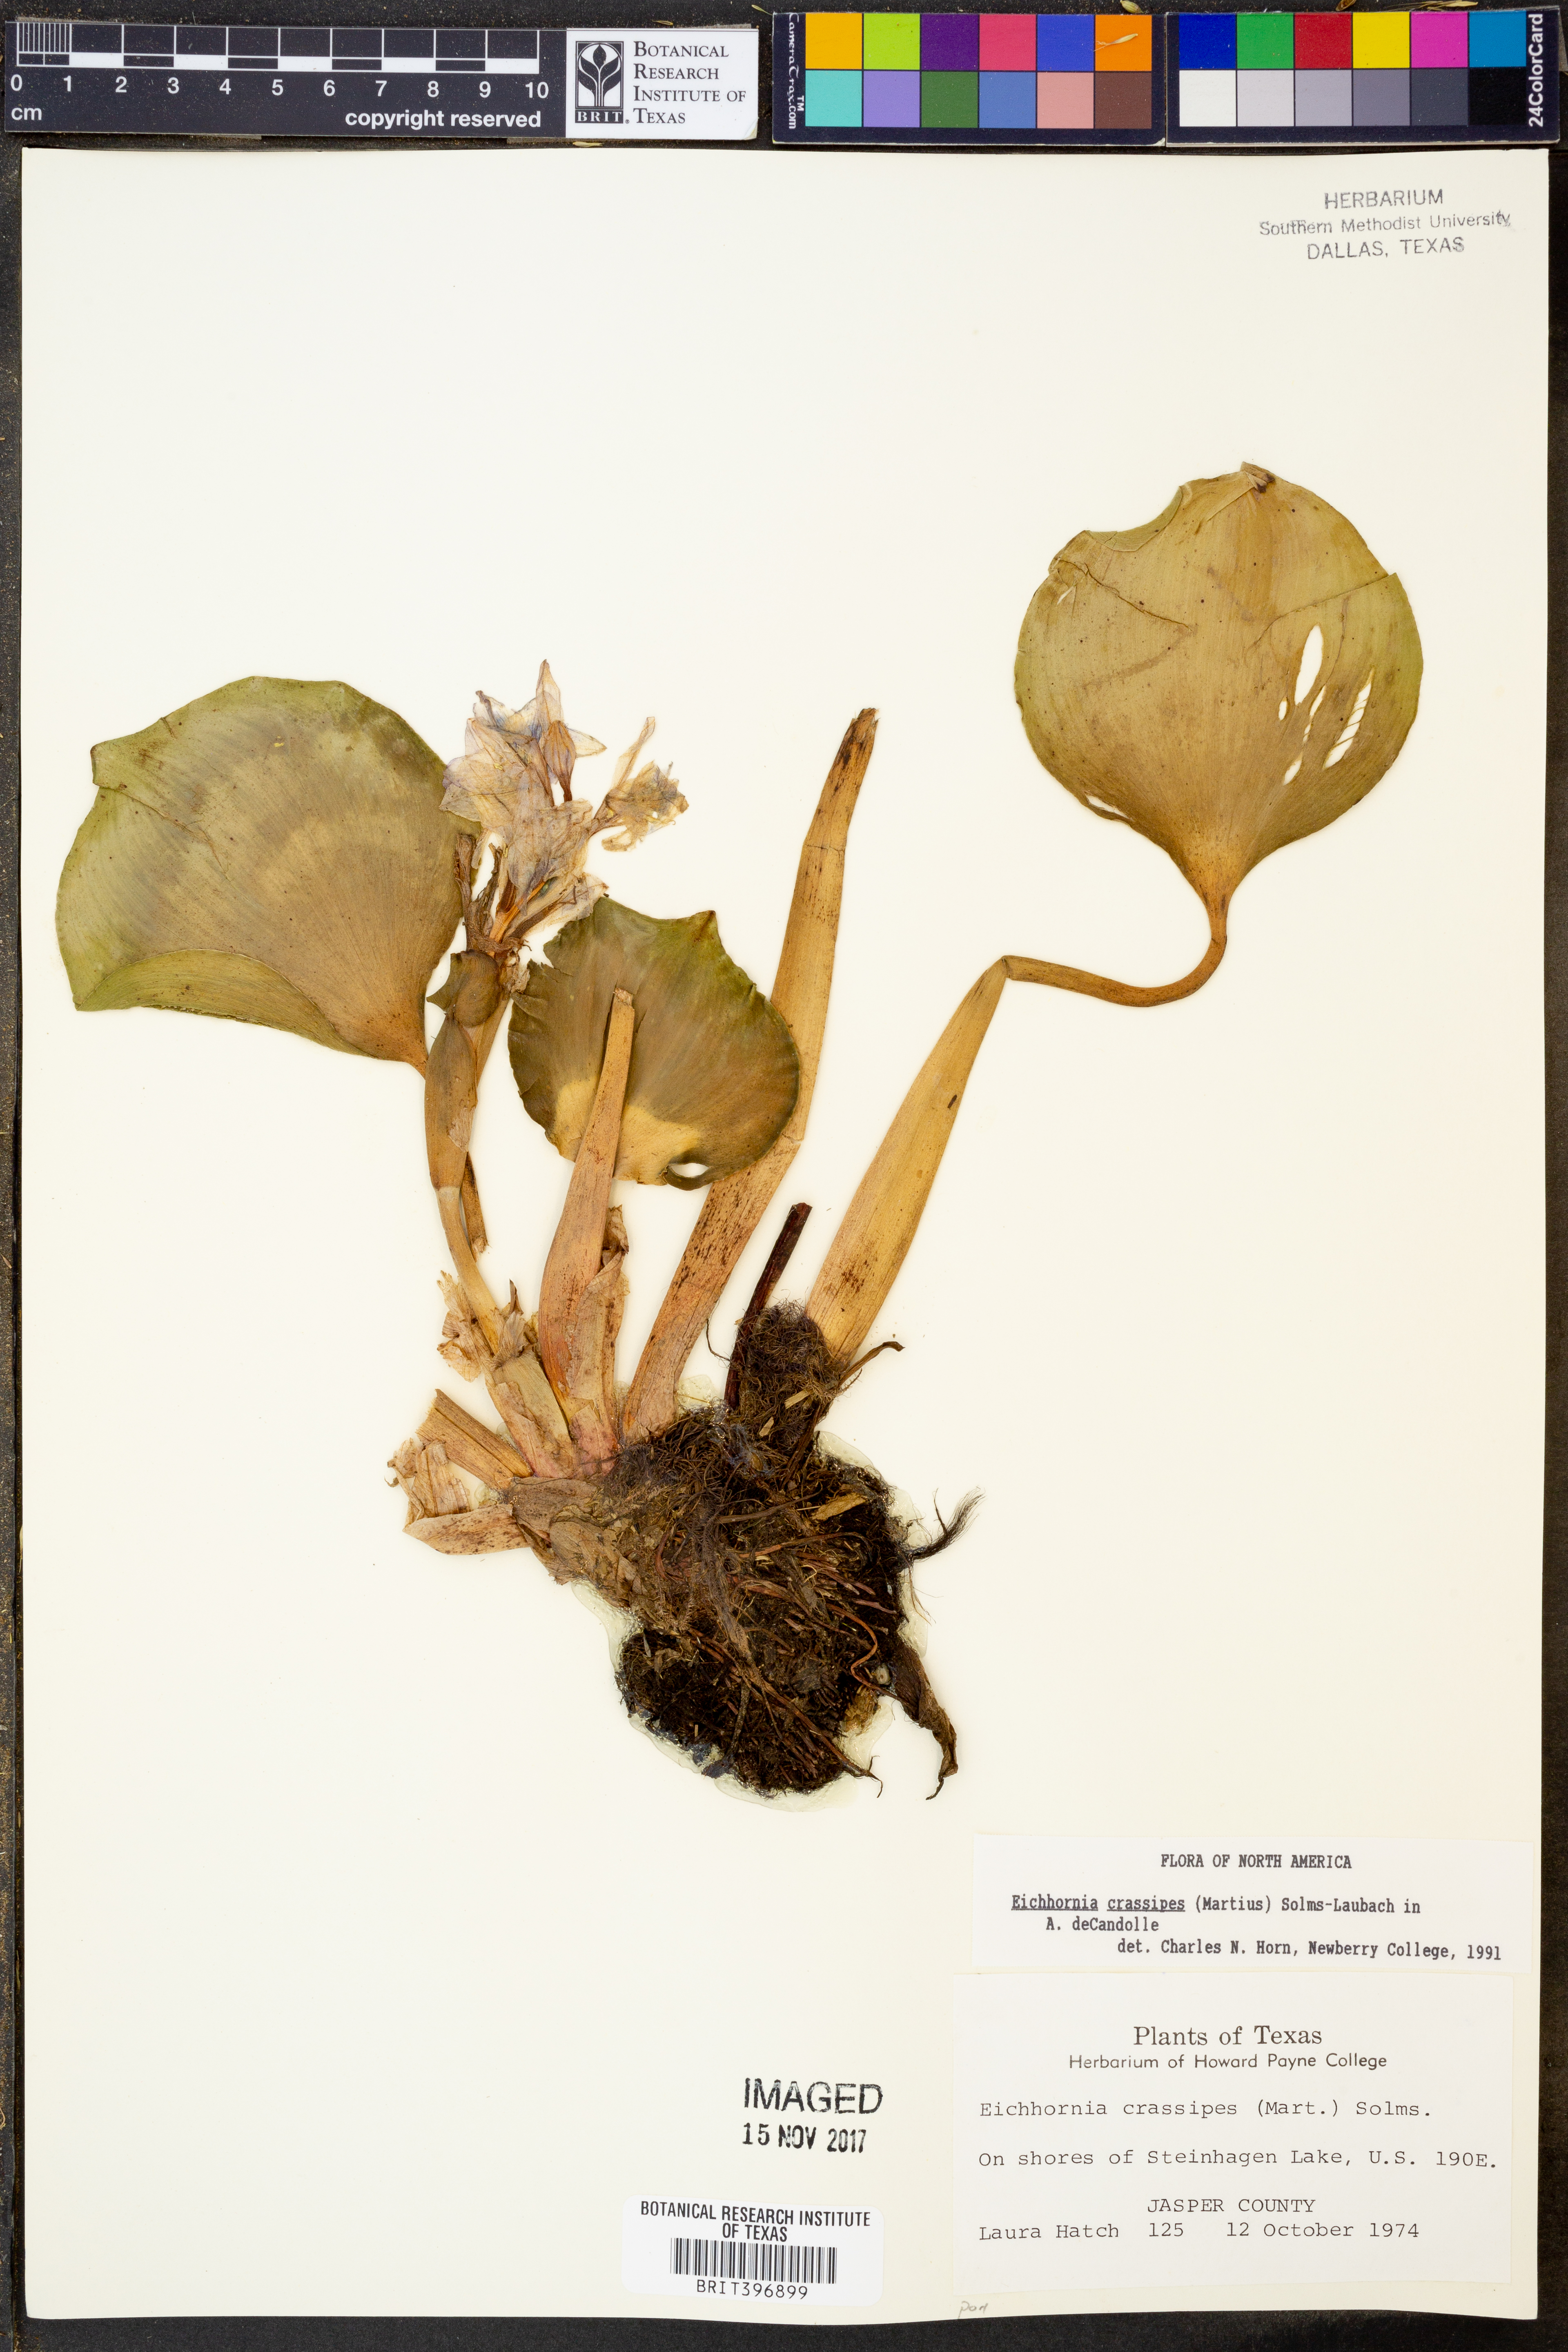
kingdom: Plantae
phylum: Tracheophyta
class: Liliopsida
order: Commelinales
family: Pontederiaceae
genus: Pontederia
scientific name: Pontederia crassipes
